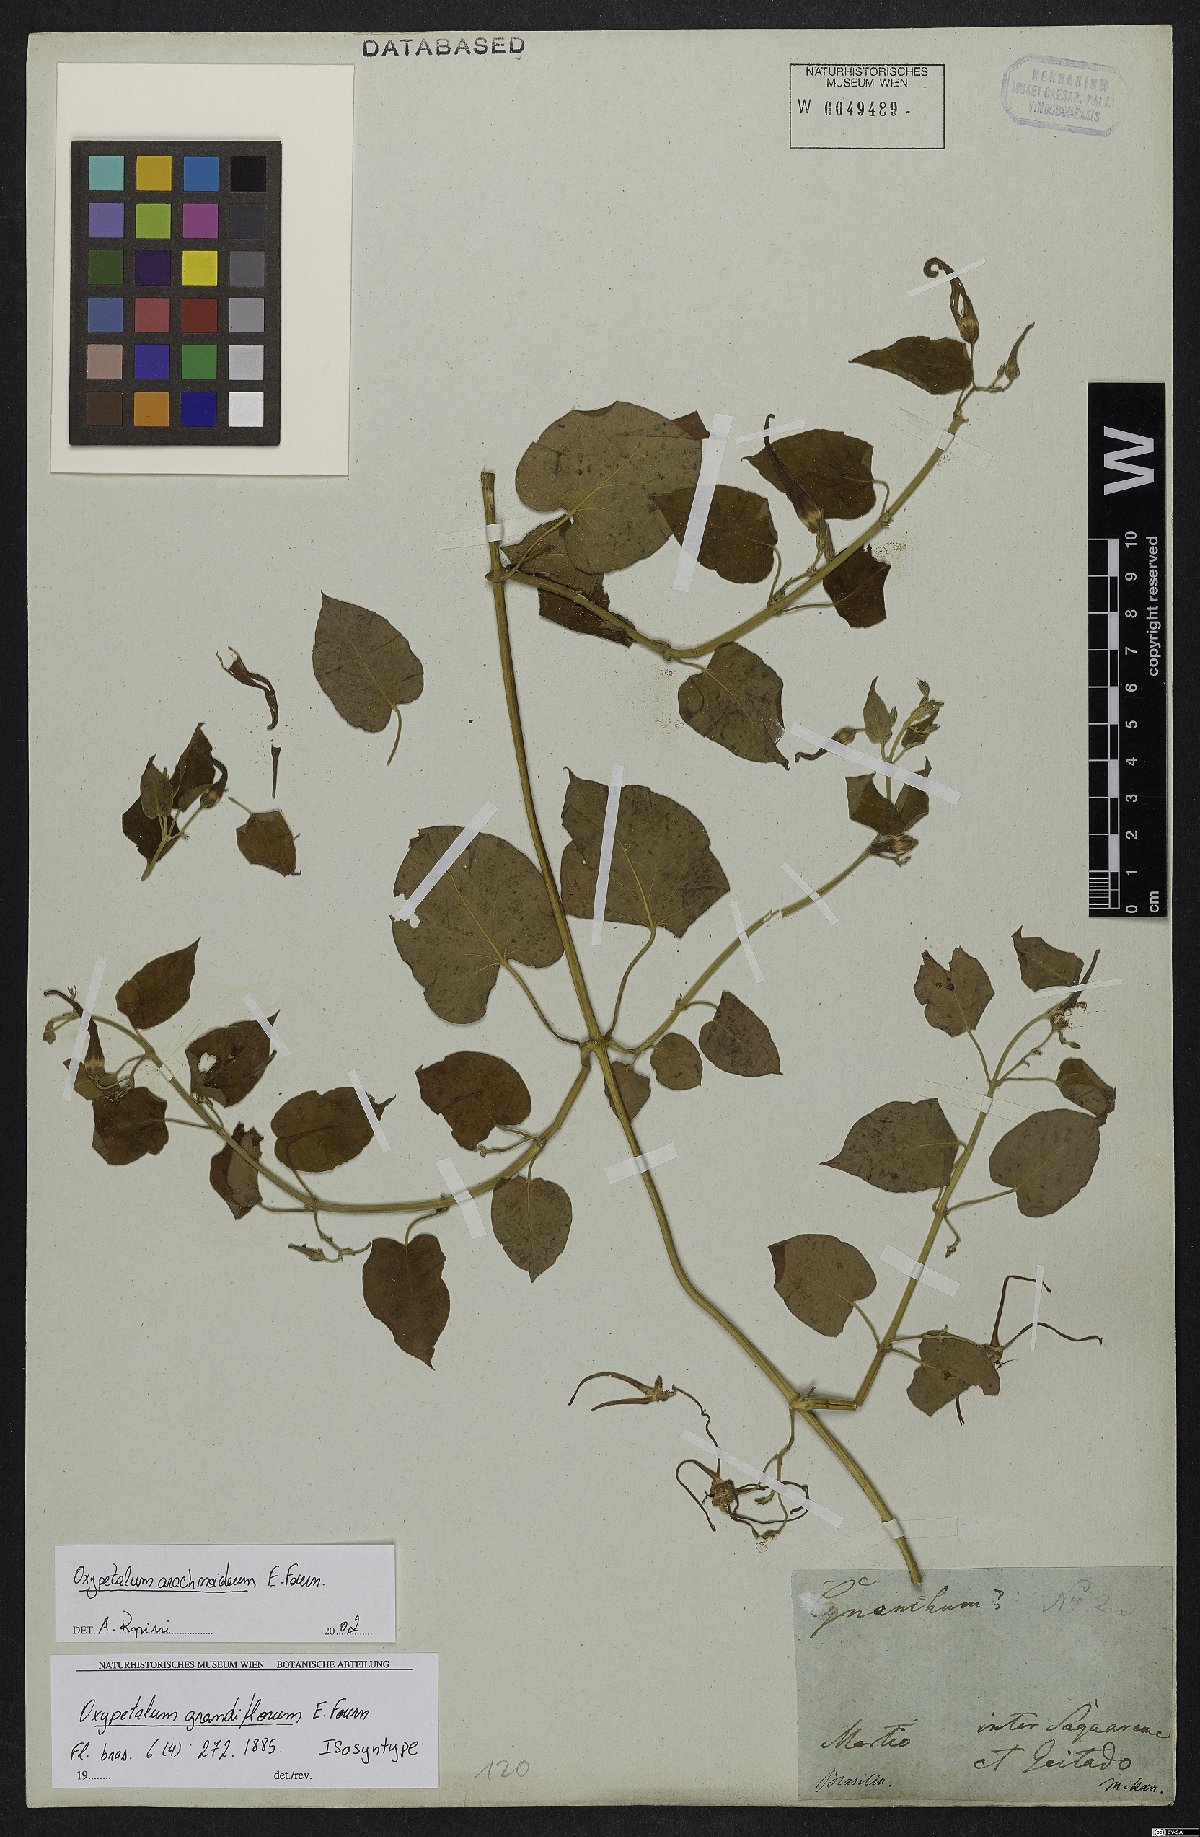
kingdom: Plantae
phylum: Tracheophyta
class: Magnoliopsida
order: Gentianales
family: Apocynaceae
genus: Oxypetalum
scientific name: Oxypetalum arachnoideum
